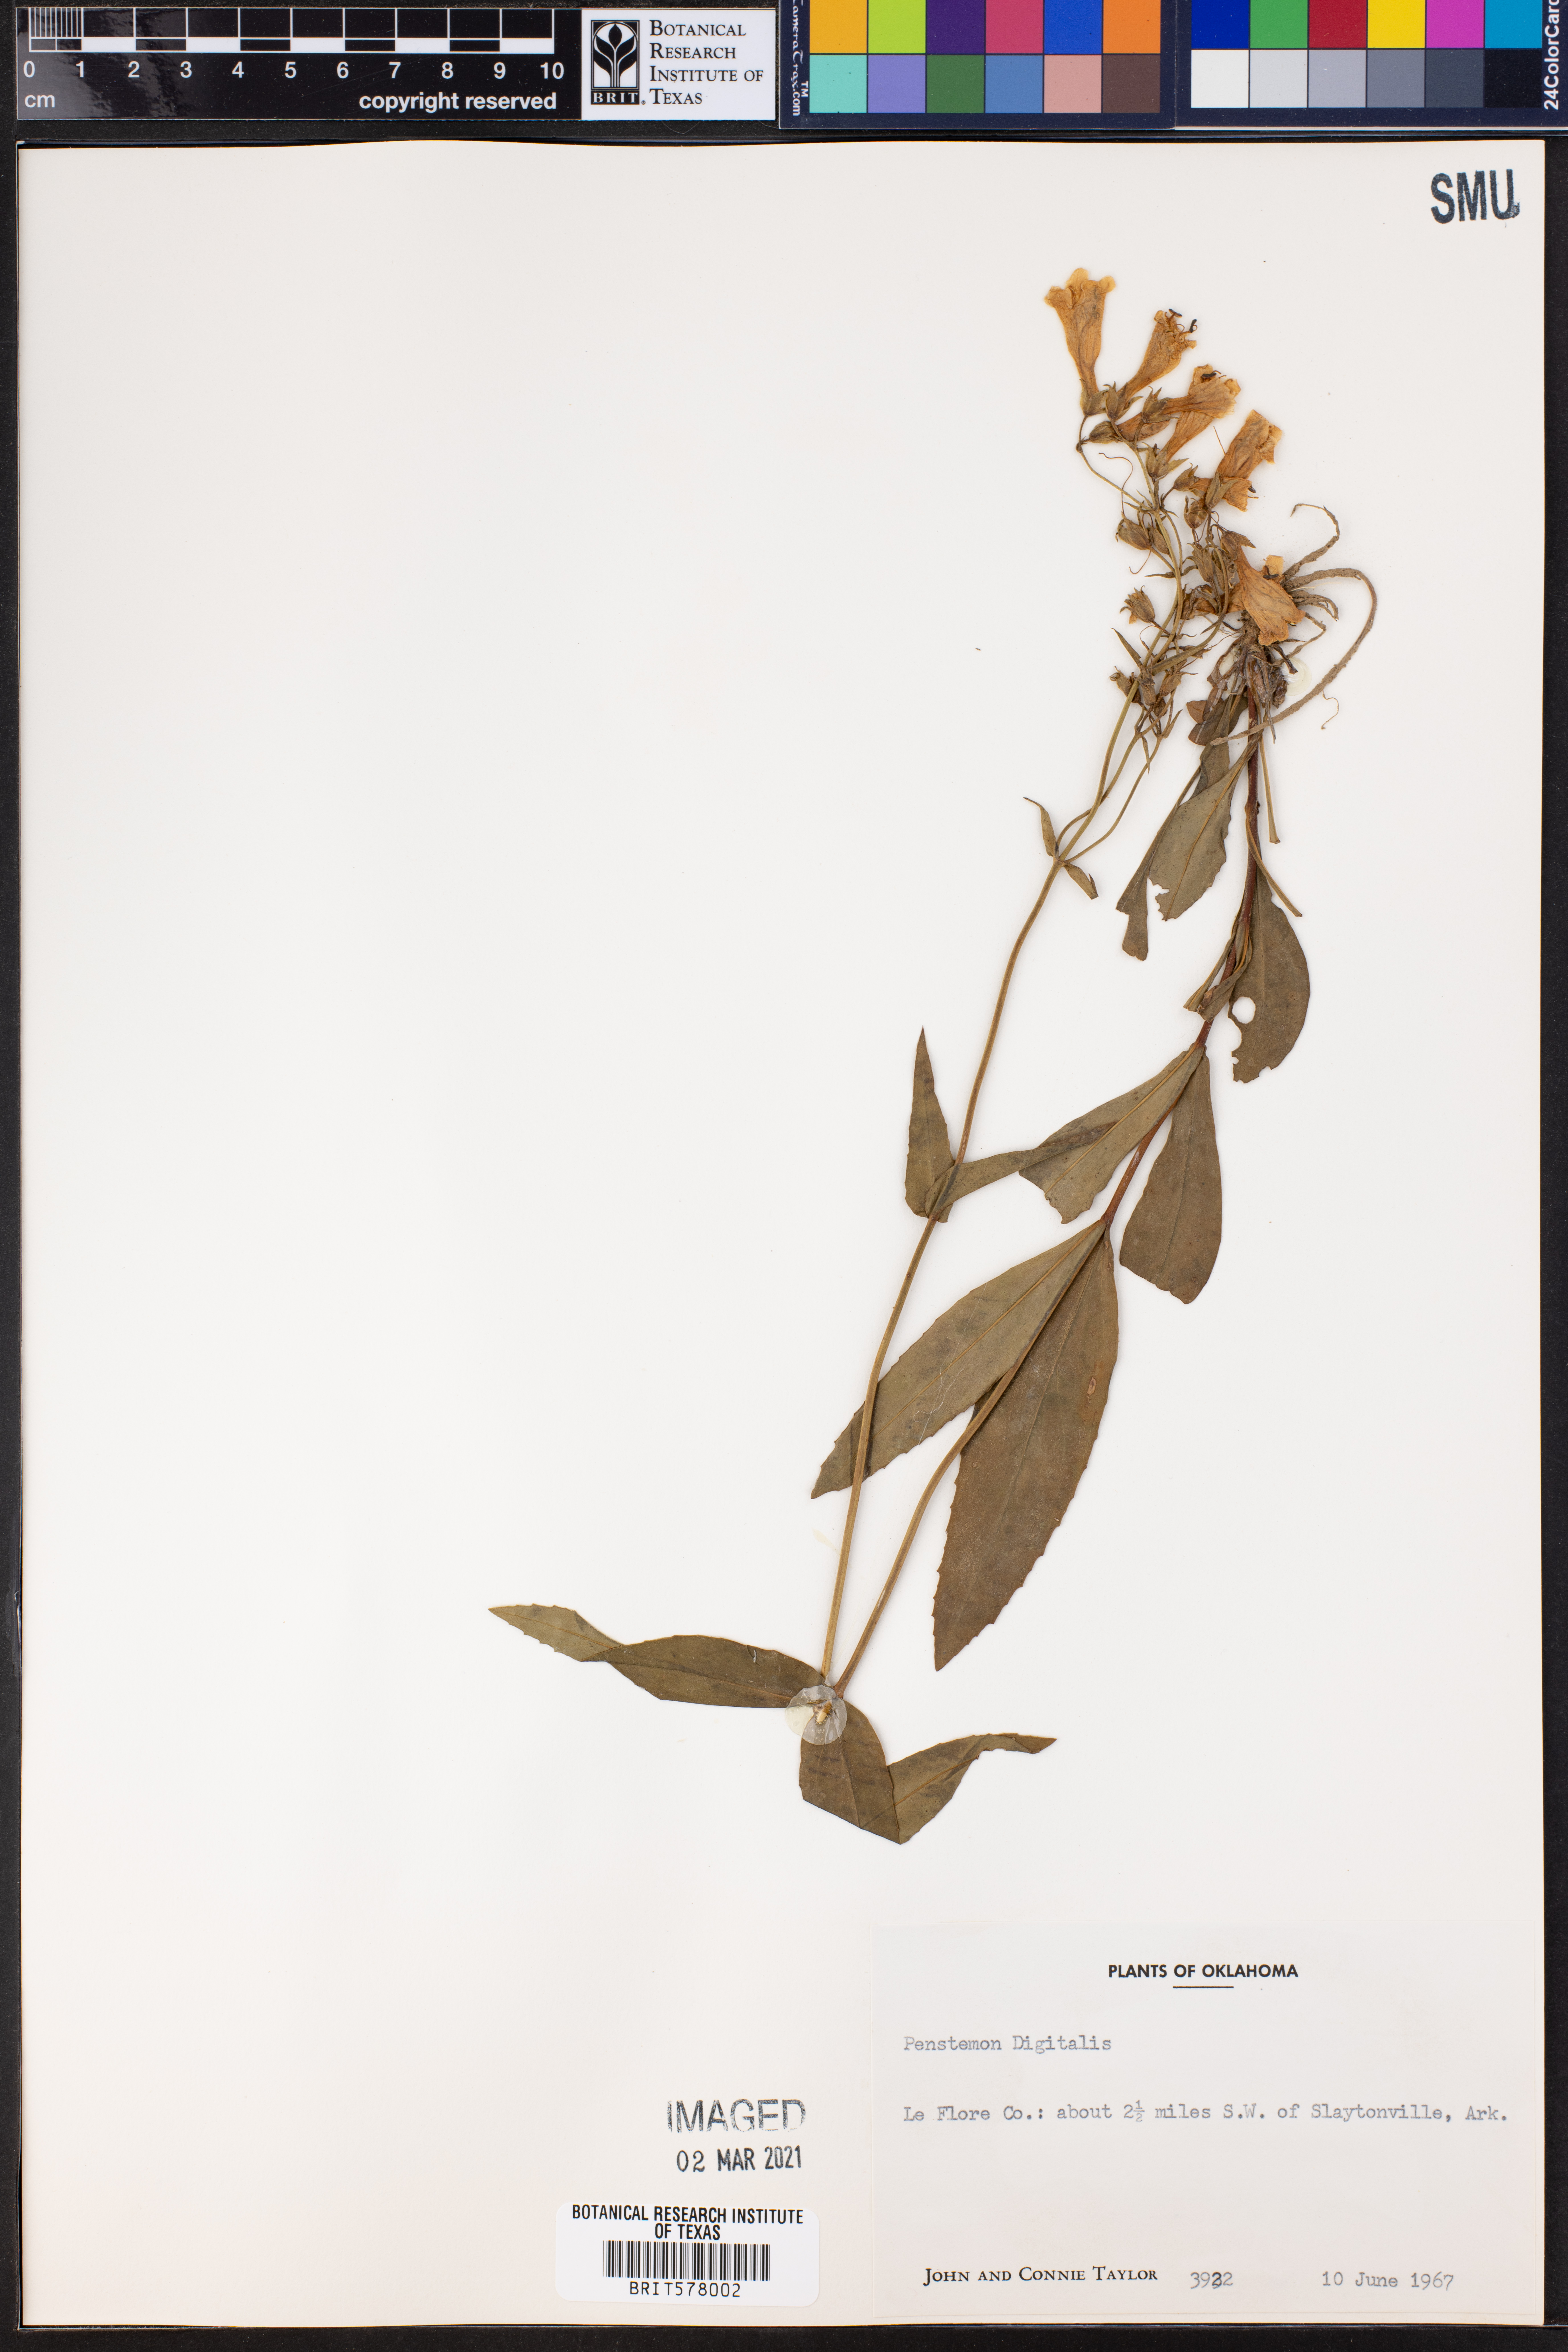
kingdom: Plantae
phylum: Tracheophyta
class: Magnoliopsida
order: Lamiales
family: Plantaginaceae
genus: Penstemon
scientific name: Penstemon digitalis
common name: Foxglove beardtongue
